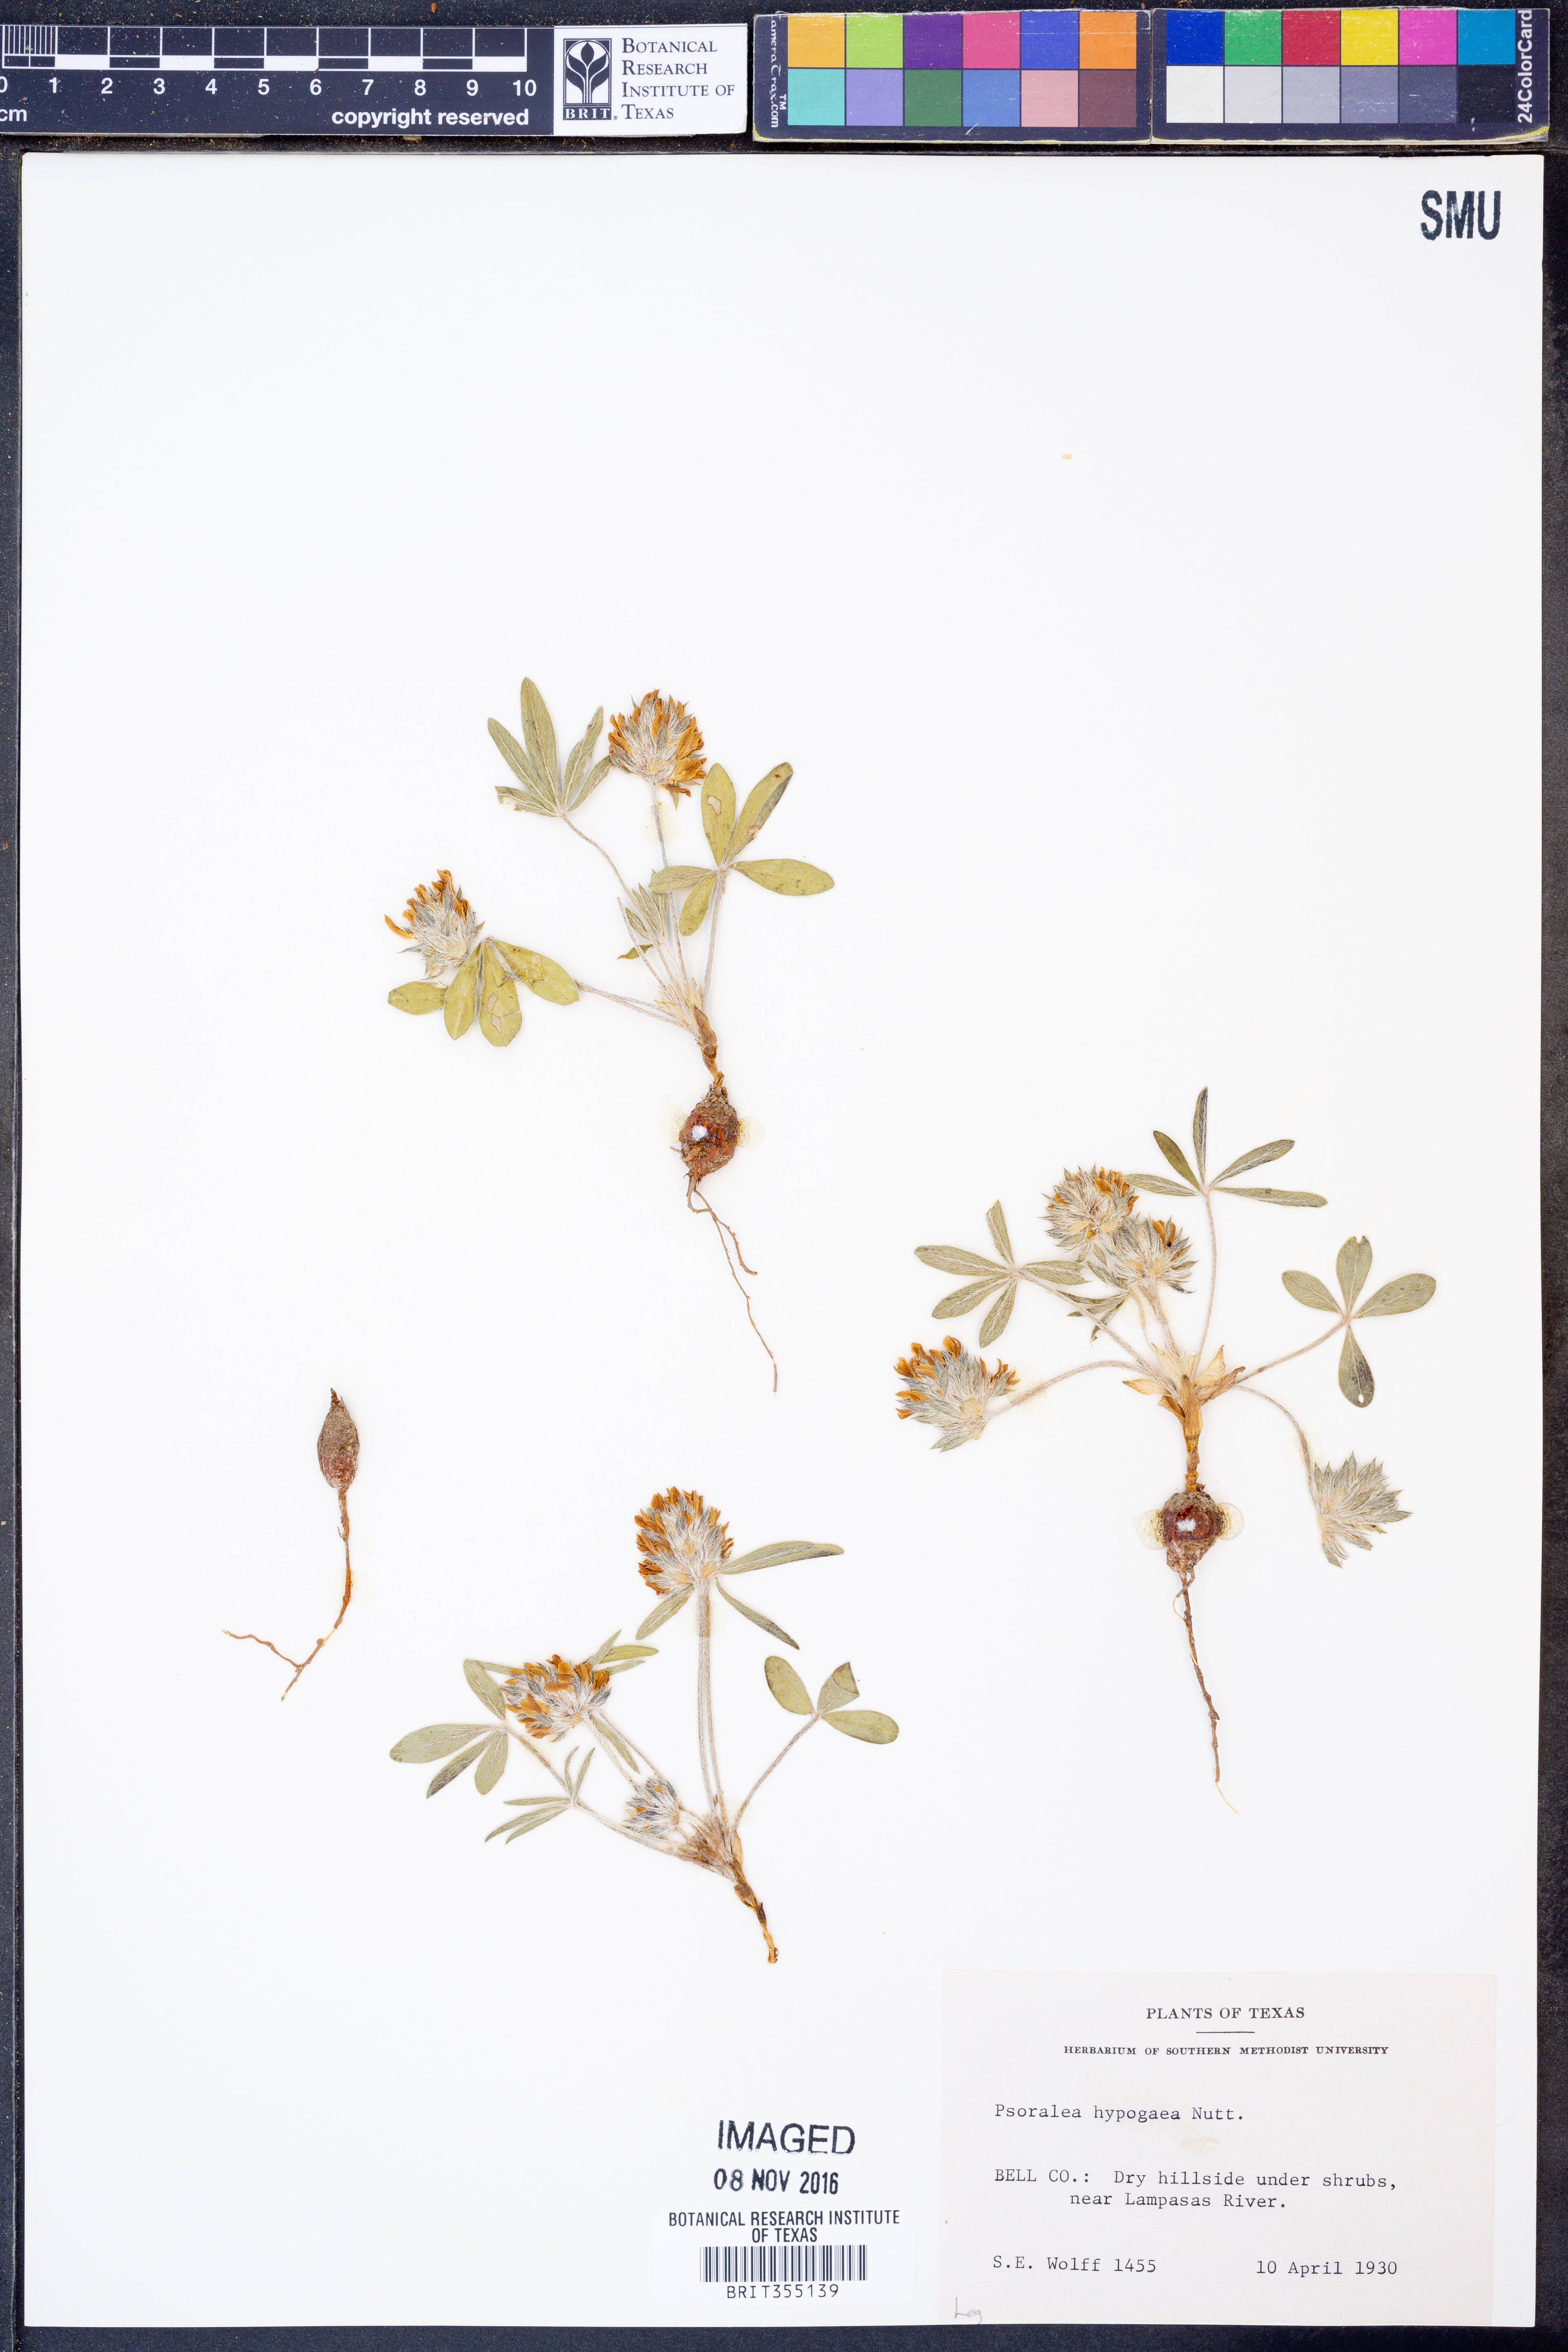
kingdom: Plantae
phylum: Tracheophyta
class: Magnoliopsida
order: Fabales
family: Fabaceae
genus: Pediomelum
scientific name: Pediomelum hypogaeum
